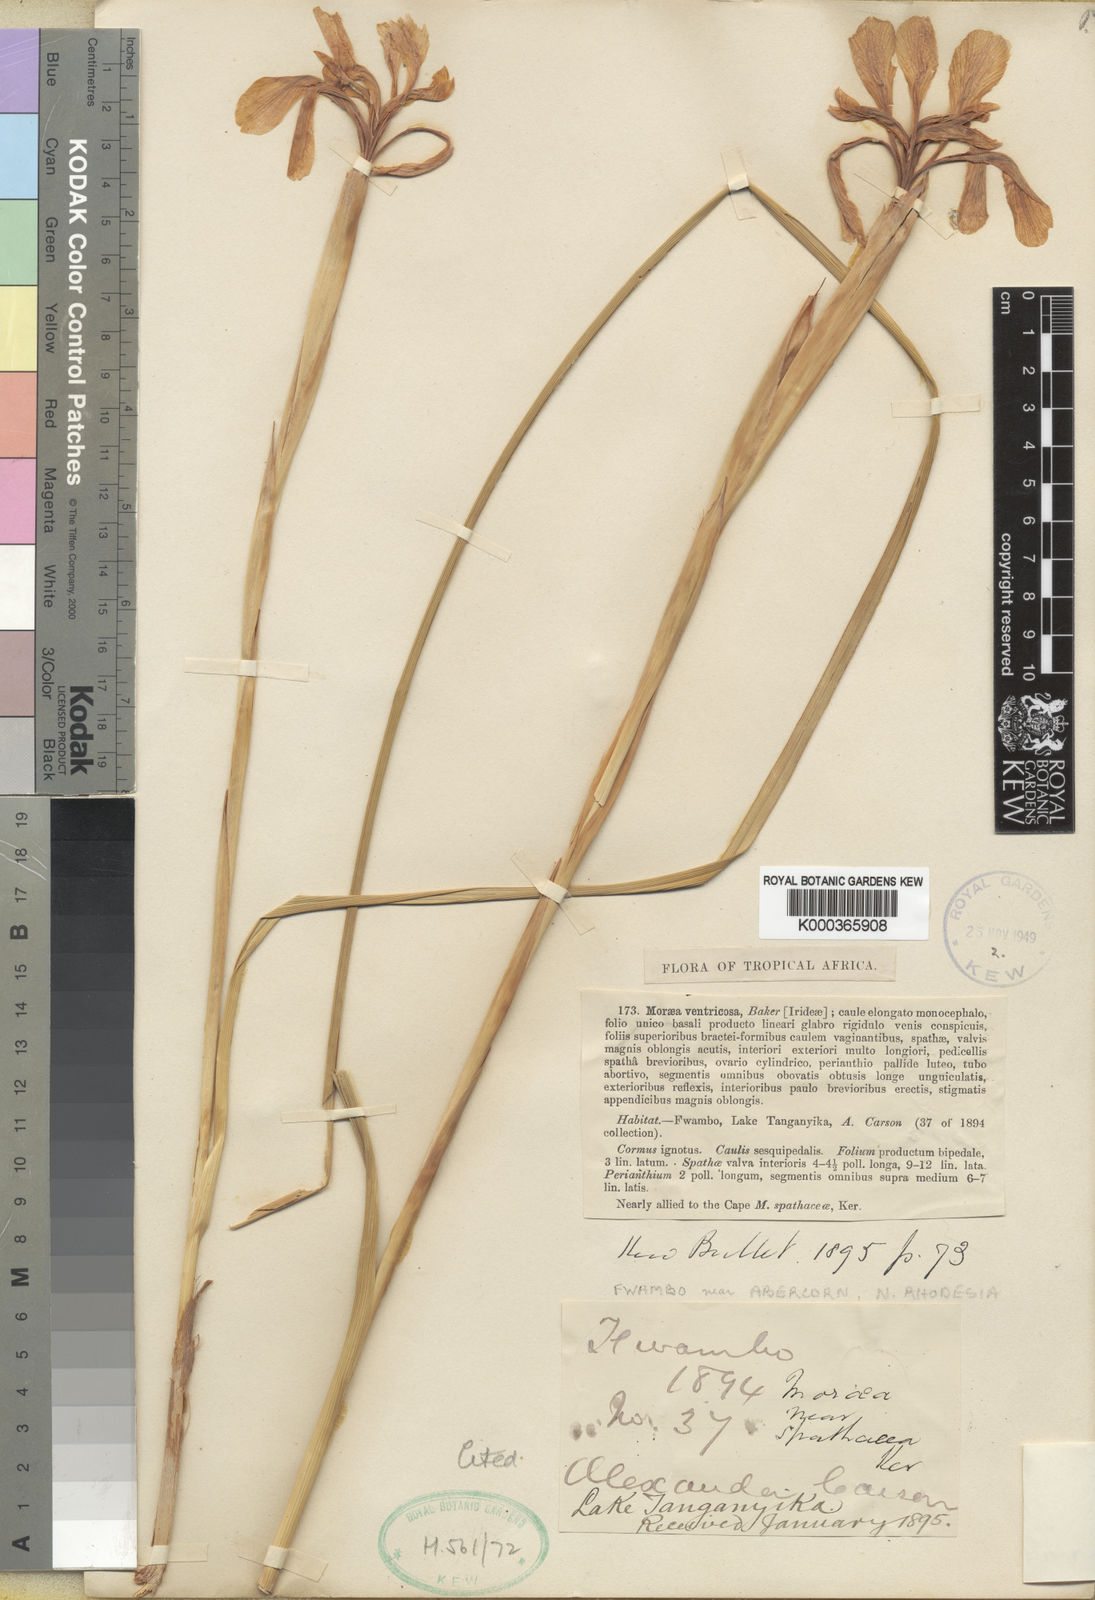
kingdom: Plantae
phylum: Tracheophyta
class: Liliopsida
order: Asparagales
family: Iridaceae
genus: Moraea
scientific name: Moraea textilis
